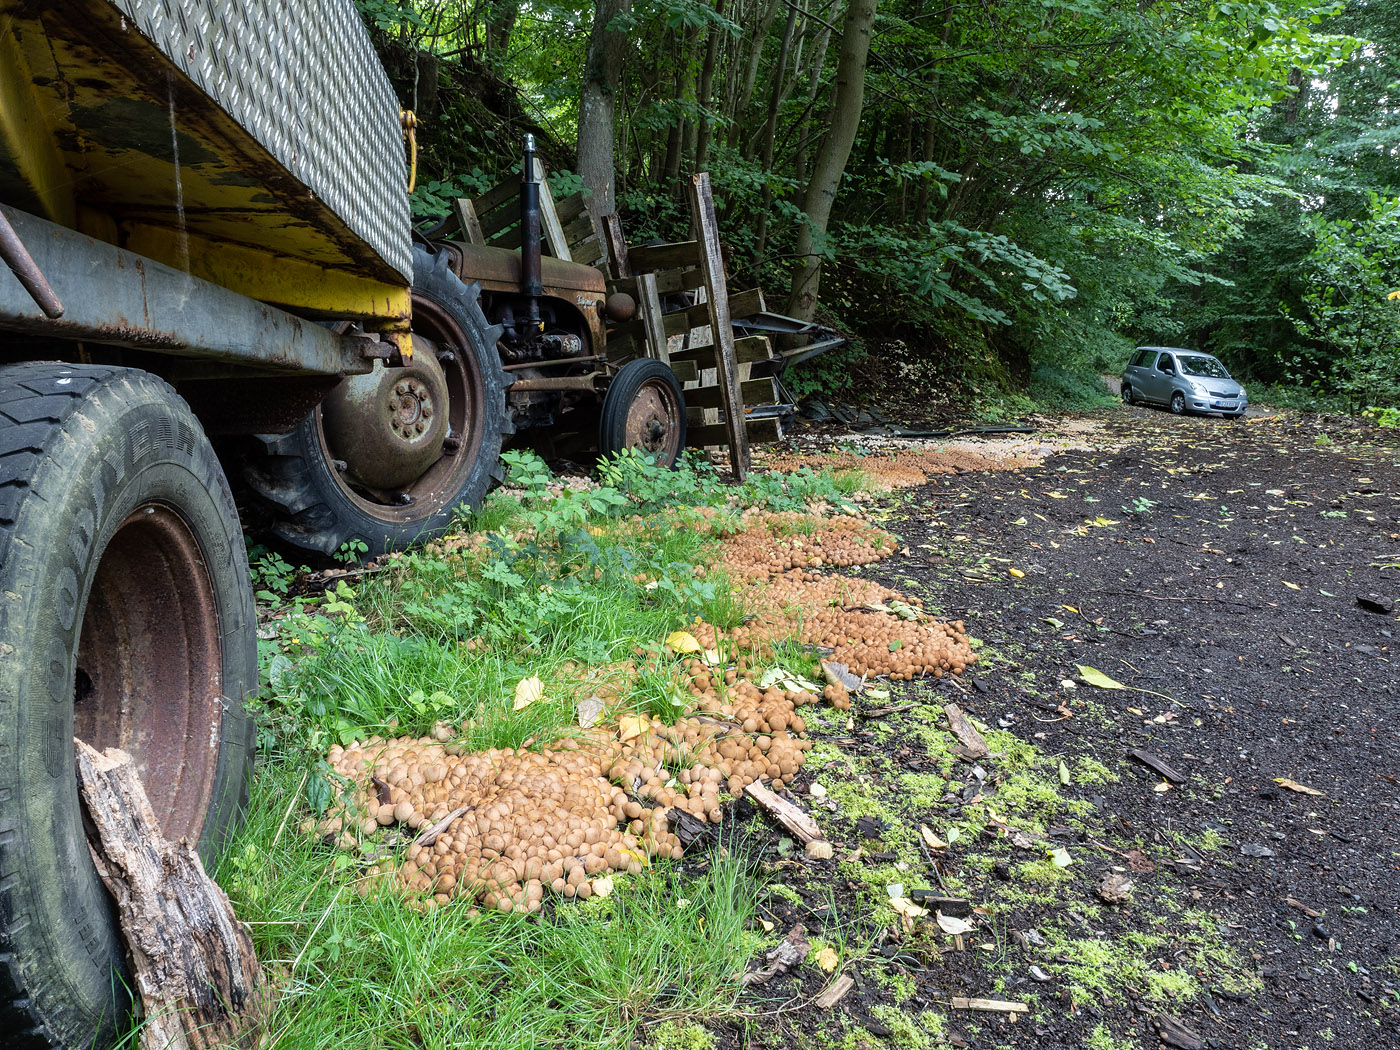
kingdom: Fungi
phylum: Basidiomycota
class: Agaricomycetes
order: Agaricales
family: Lycoperdaceae
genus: Apioperdon
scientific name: Apioperdon pyriforme
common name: pære-støvbold
